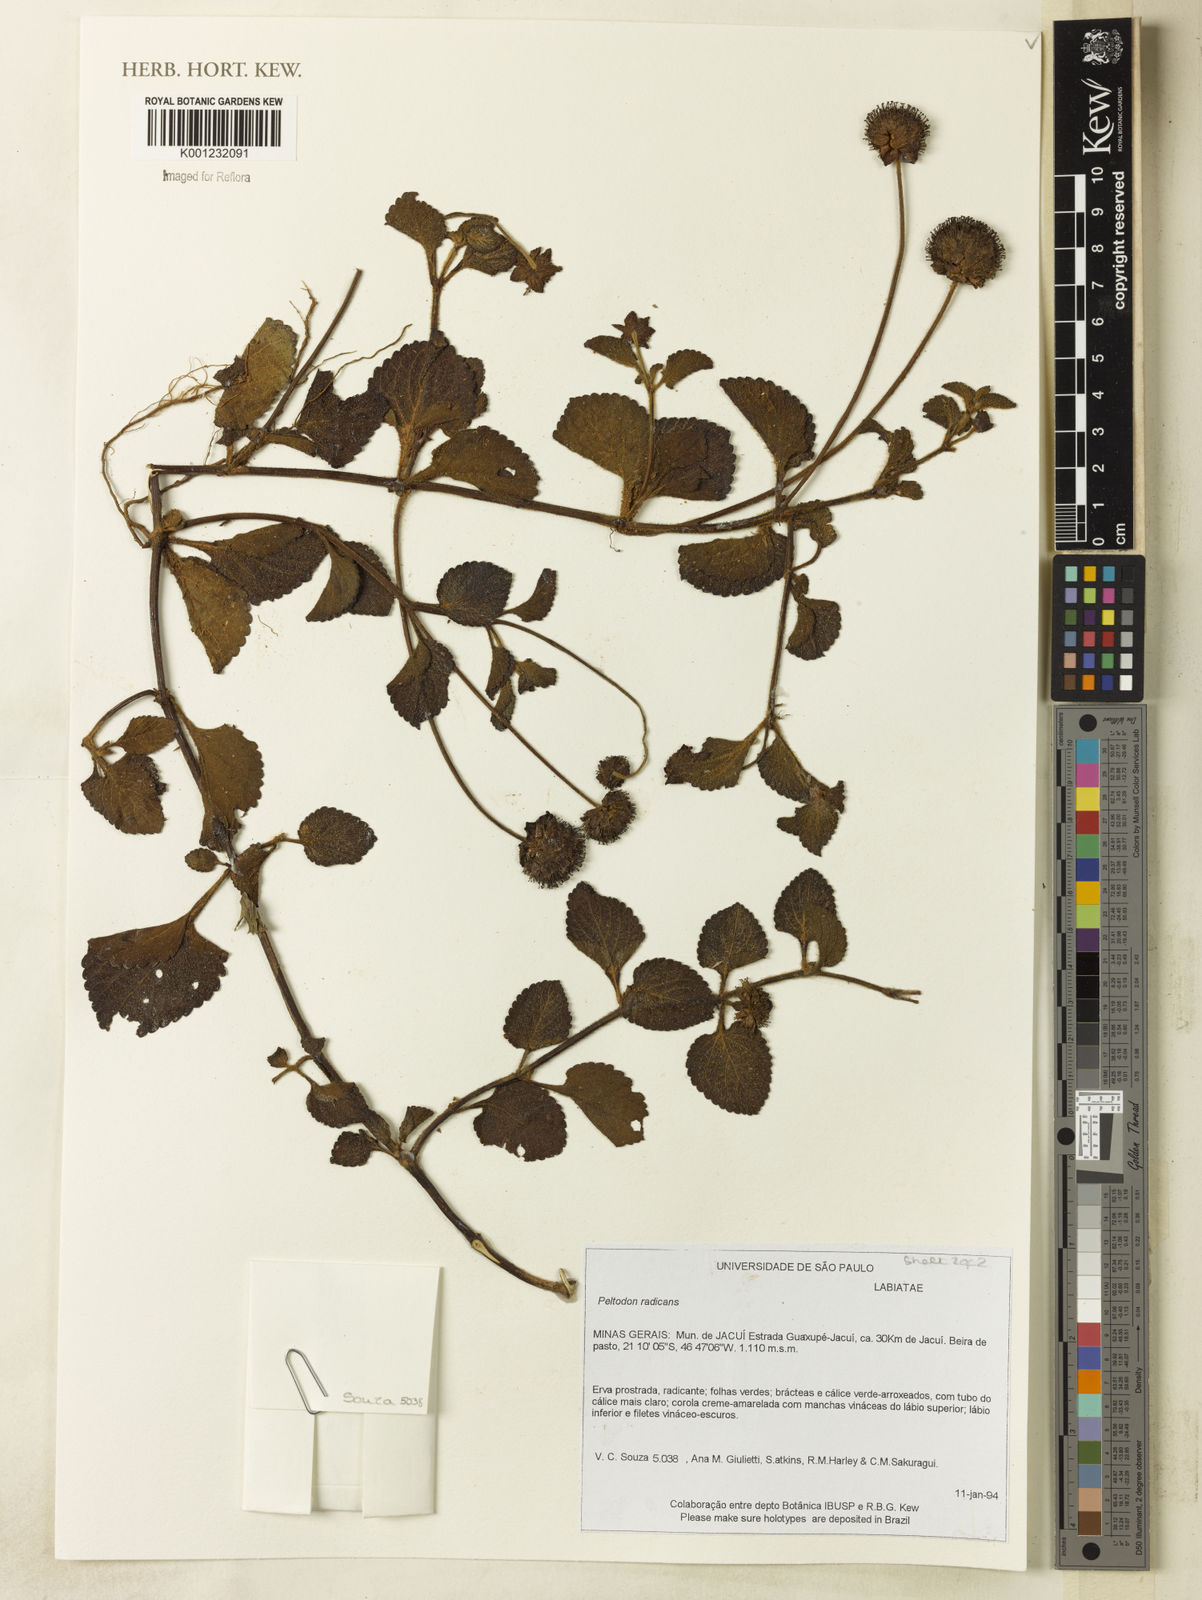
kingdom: Plantae
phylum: Tracheophyta
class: Magnoliopsida
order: Lamiales
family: Lamiaceae
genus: Hyptis
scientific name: Hyptis radicans
